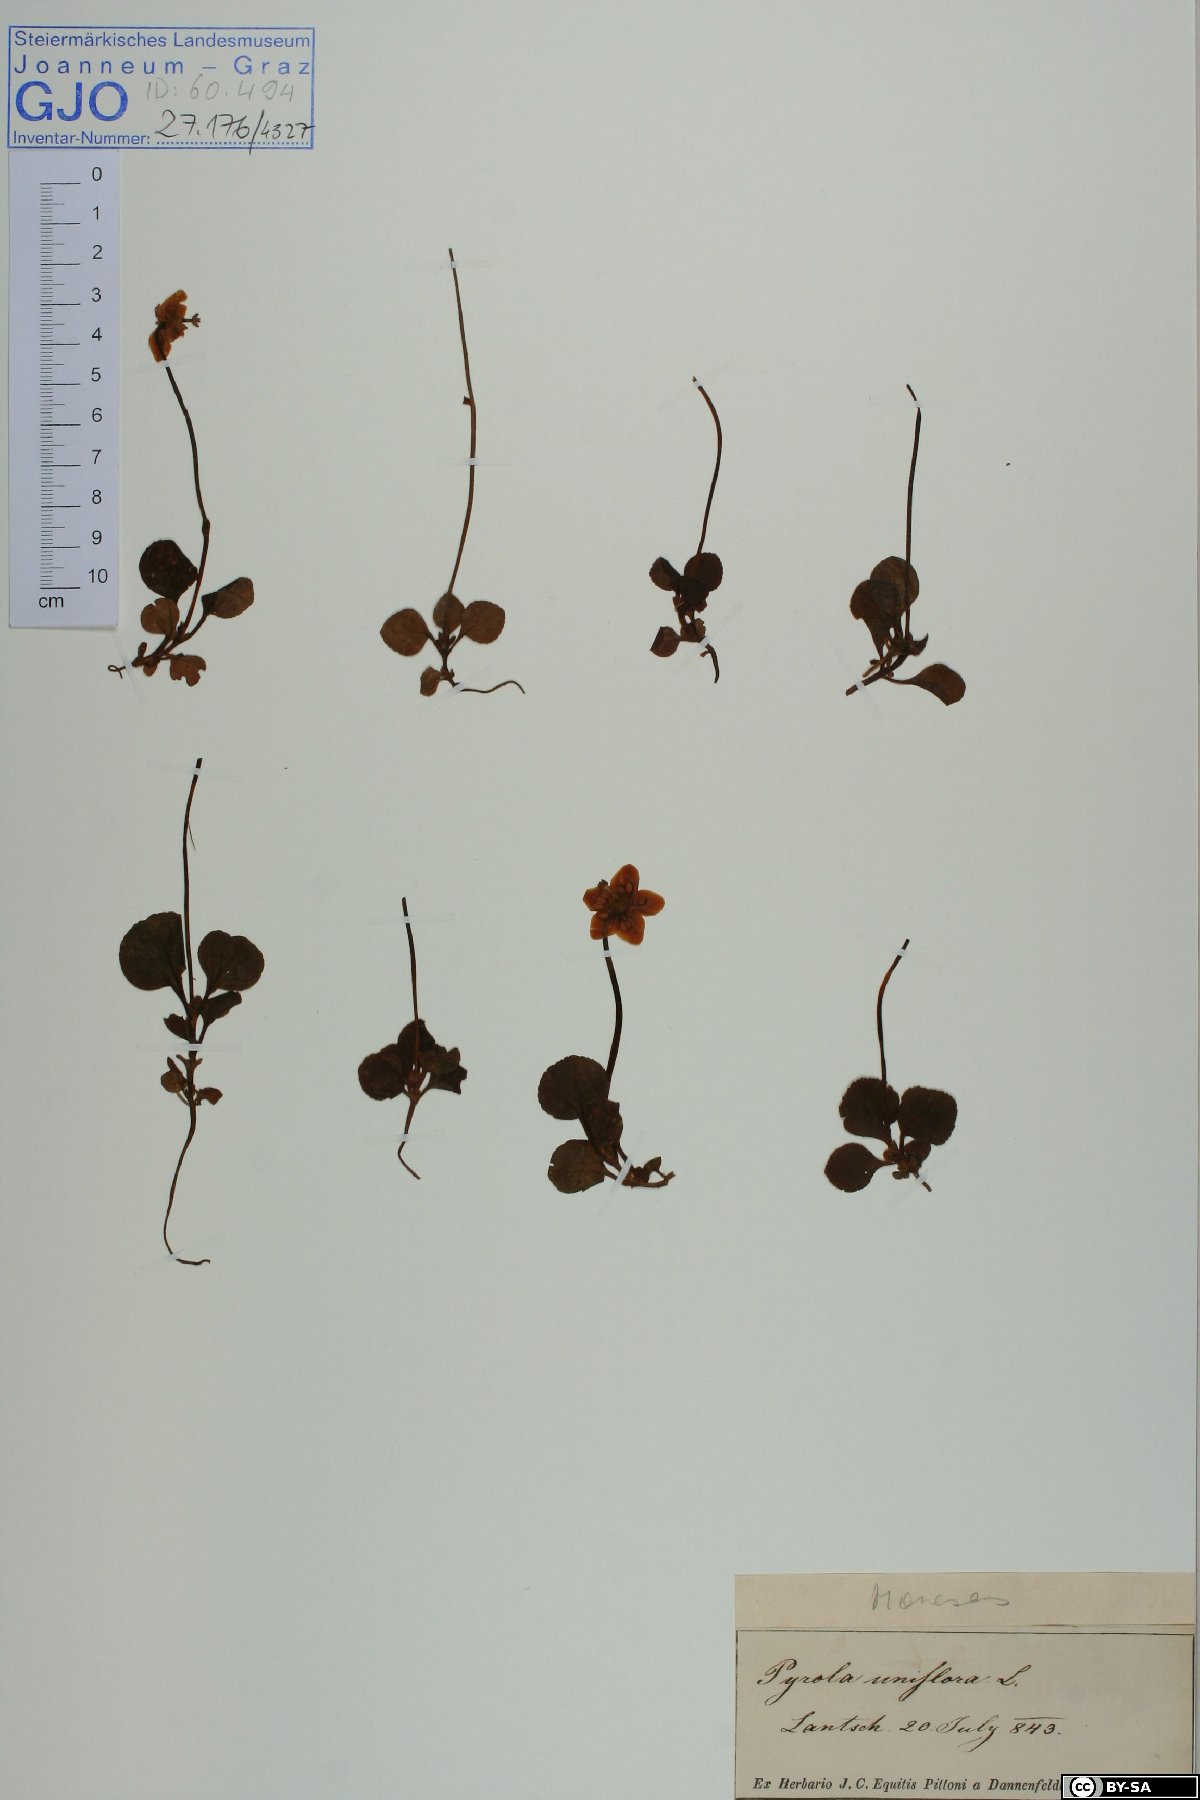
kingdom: Plantae
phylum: Tracheophyta
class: Magnoliopsida
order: Ericales
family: Ericaceae
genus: Moneses
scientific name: Moneses uniflora
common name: One-flowered wintergreen
